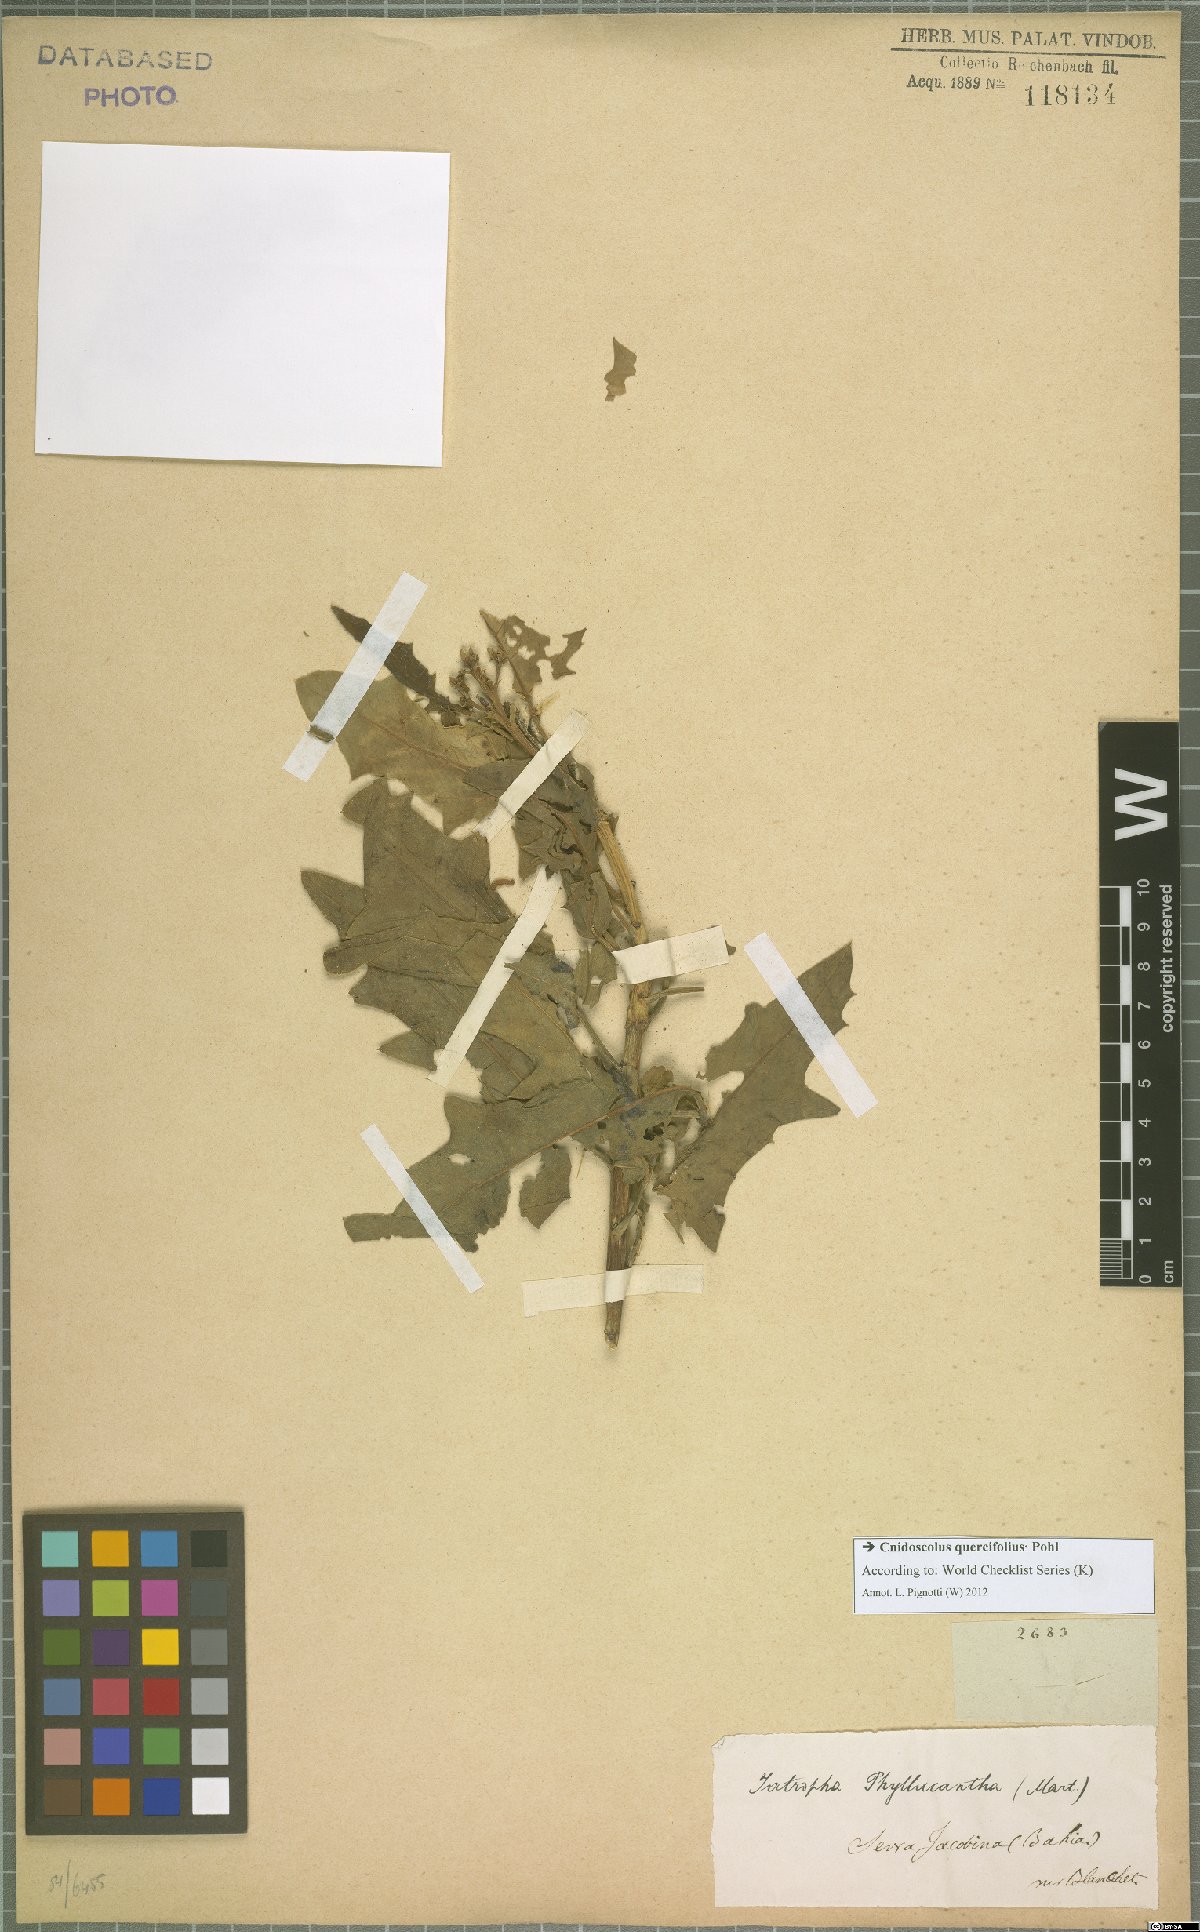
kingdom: Plantae
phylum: Tracheophyta
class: Magnoliopsida
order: Malpighiales
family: Euphorbiaceae
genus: Cnidoscolus
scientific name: Cnidoscolus quercifolius
